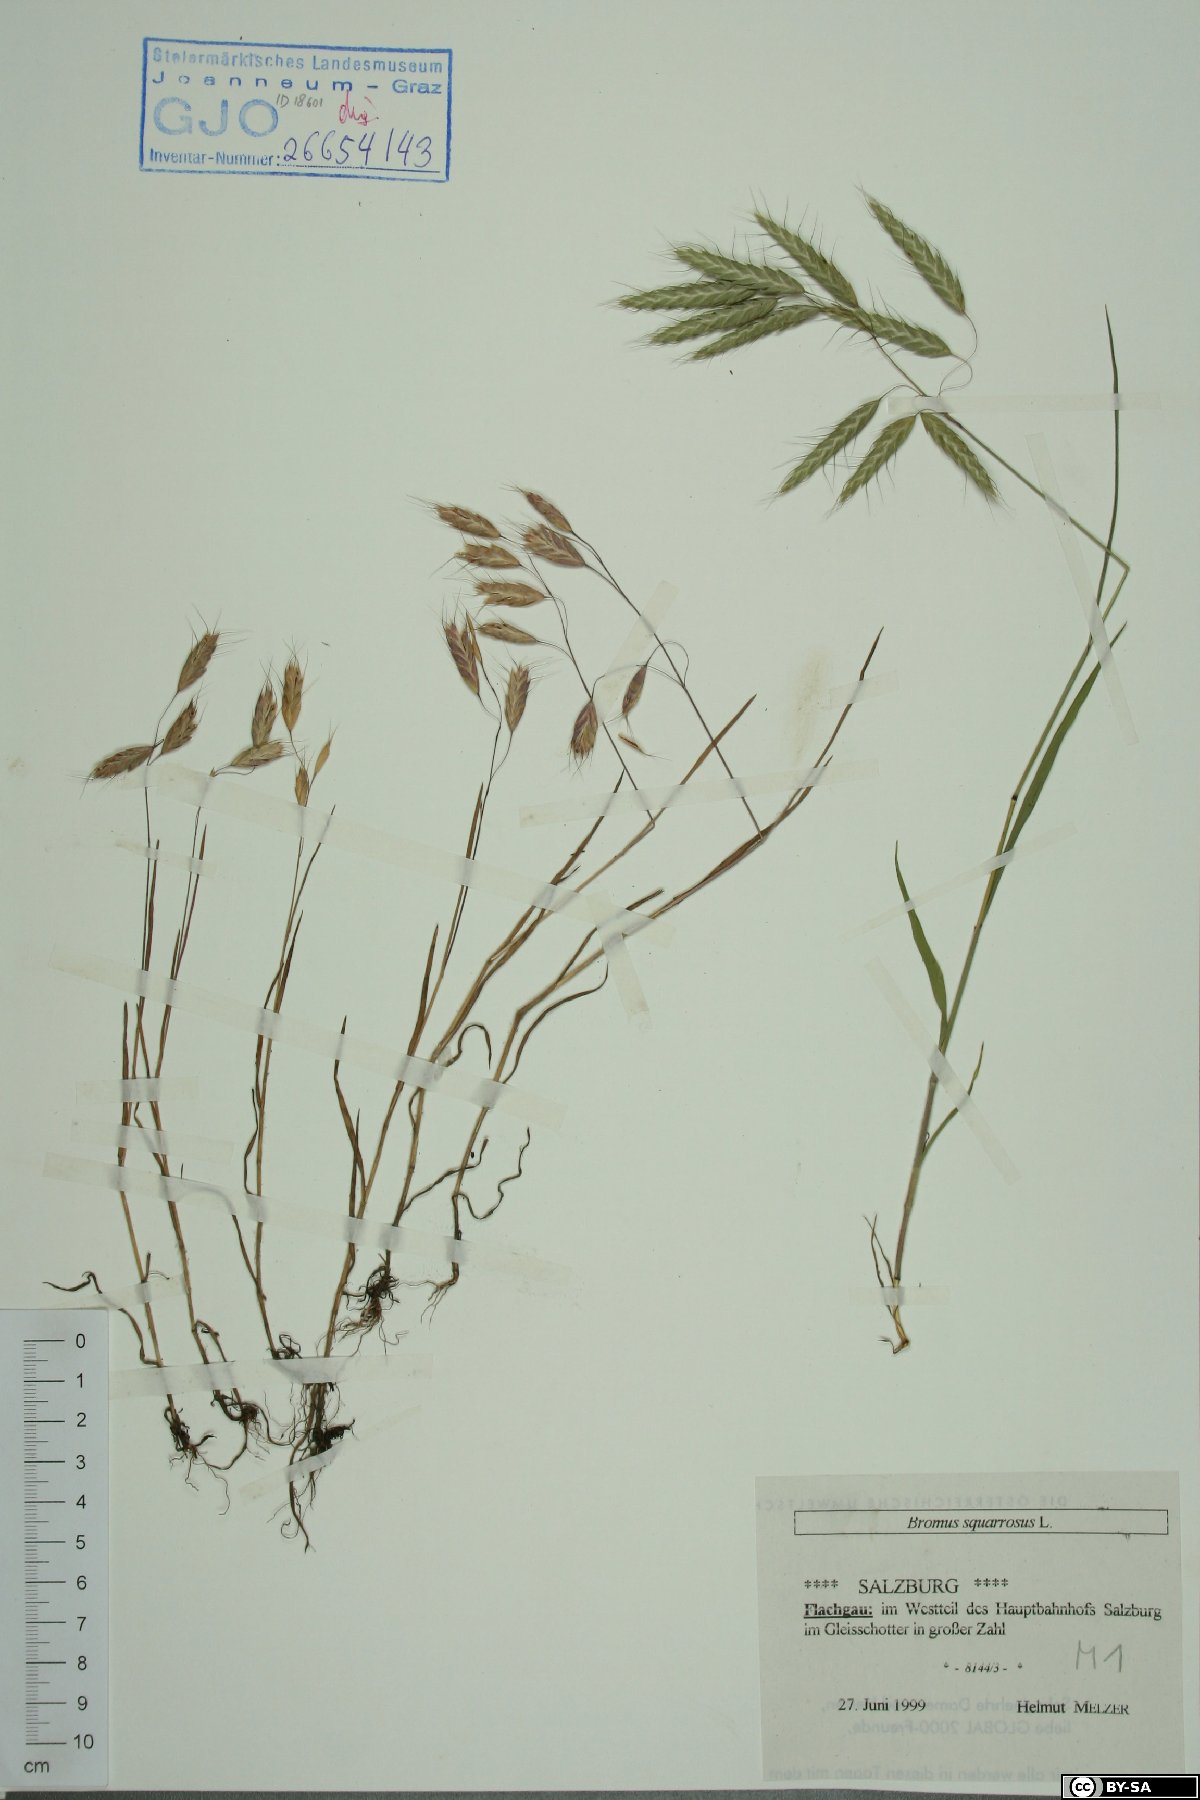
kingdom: Plantae
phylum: Tracheophyta
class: Liliopsida
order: Poales
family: Poaceae
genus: Bromus
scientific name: Bromus squarrosus
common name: Corn brome
